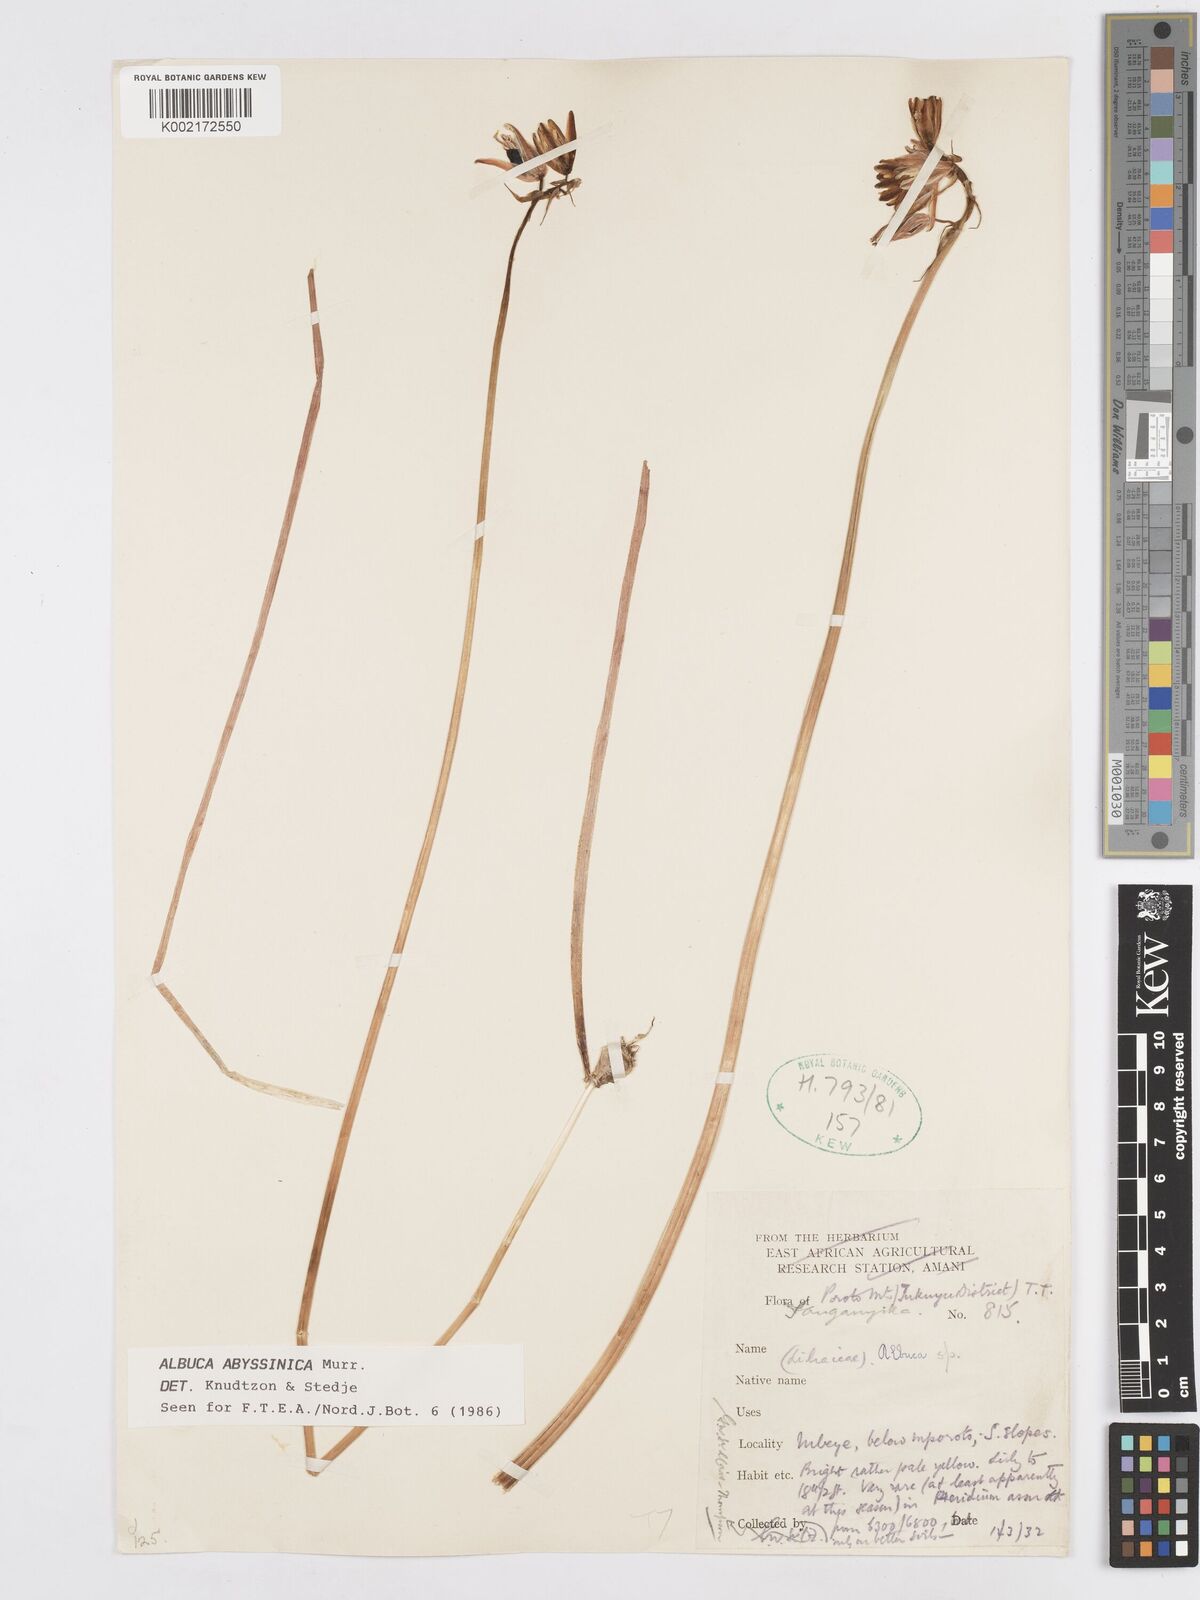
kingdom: Plantae
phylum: Tracheophyta
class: Liliopsida
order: Asparagales
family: Asparagaceae
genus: Albuca
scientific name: Albuca abyssinica
